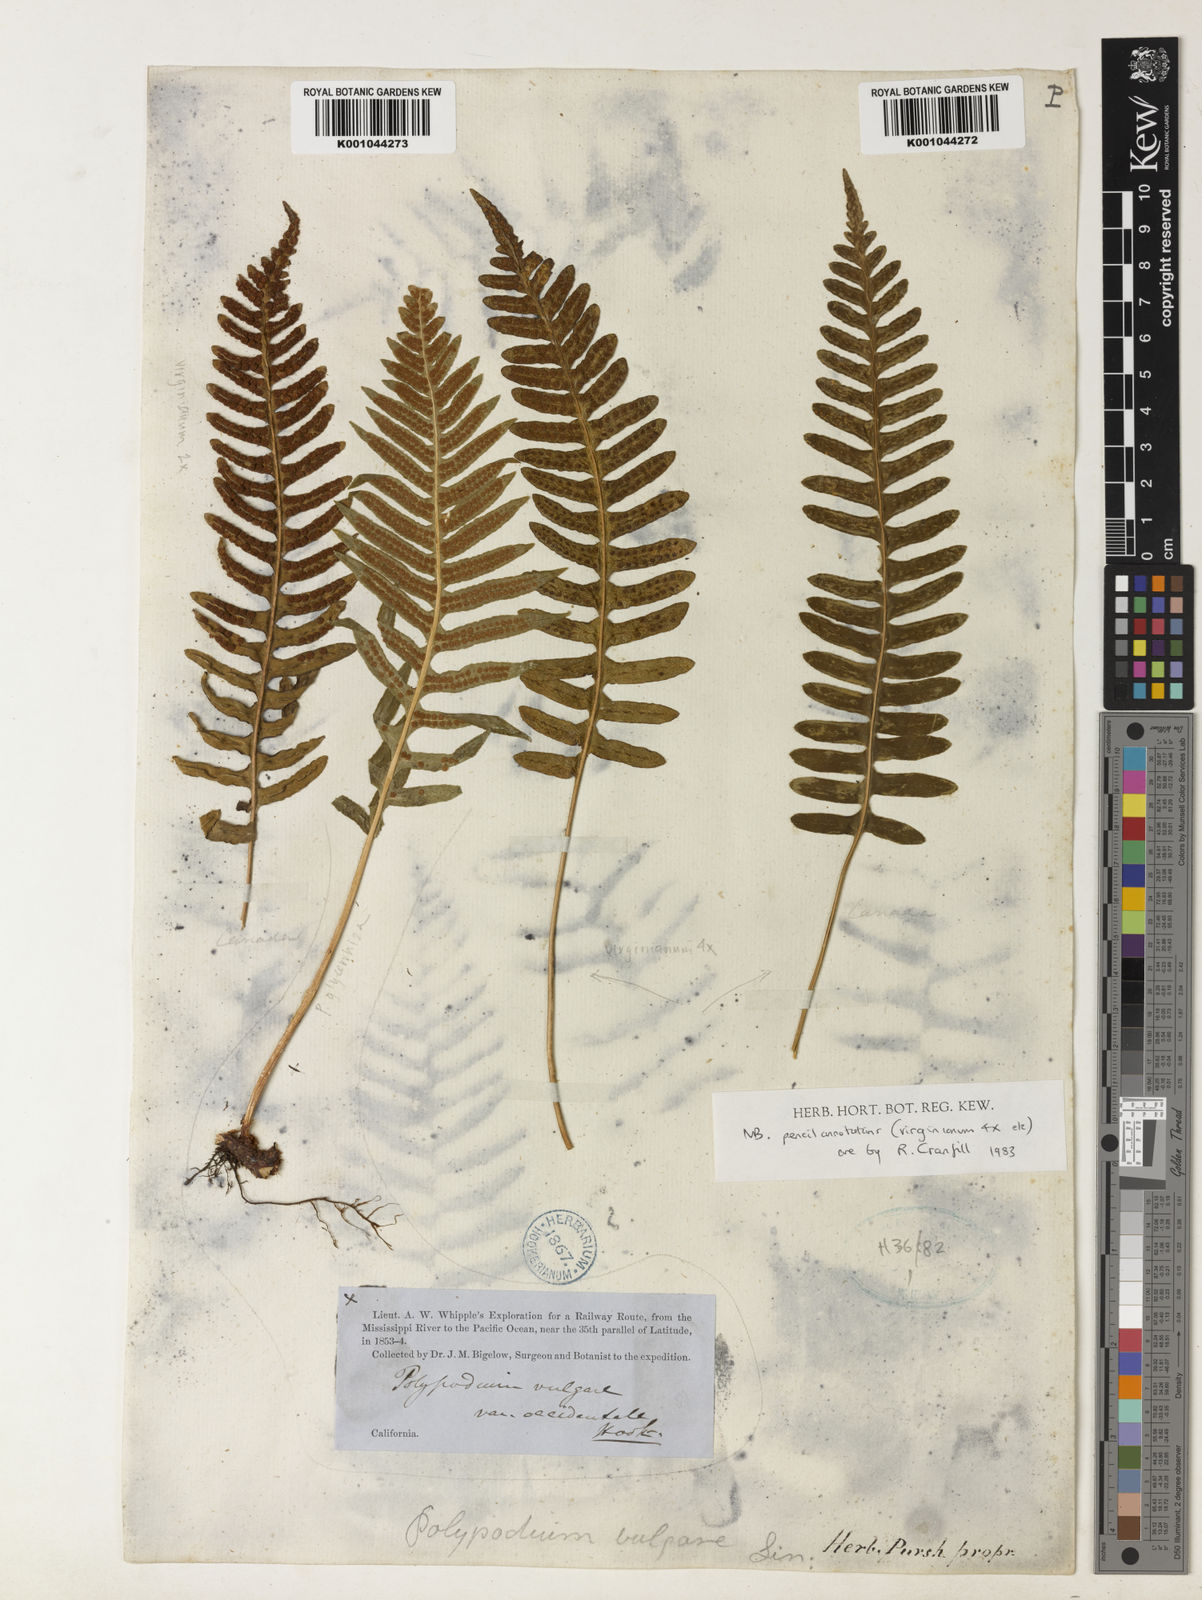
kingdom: Plantae
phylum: Tracheophyta
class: Polypodiopsida
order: Polypodiales
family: Polypodiaceae
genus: Polypodium
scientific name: Polypodium virginianum
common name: American wall fern
